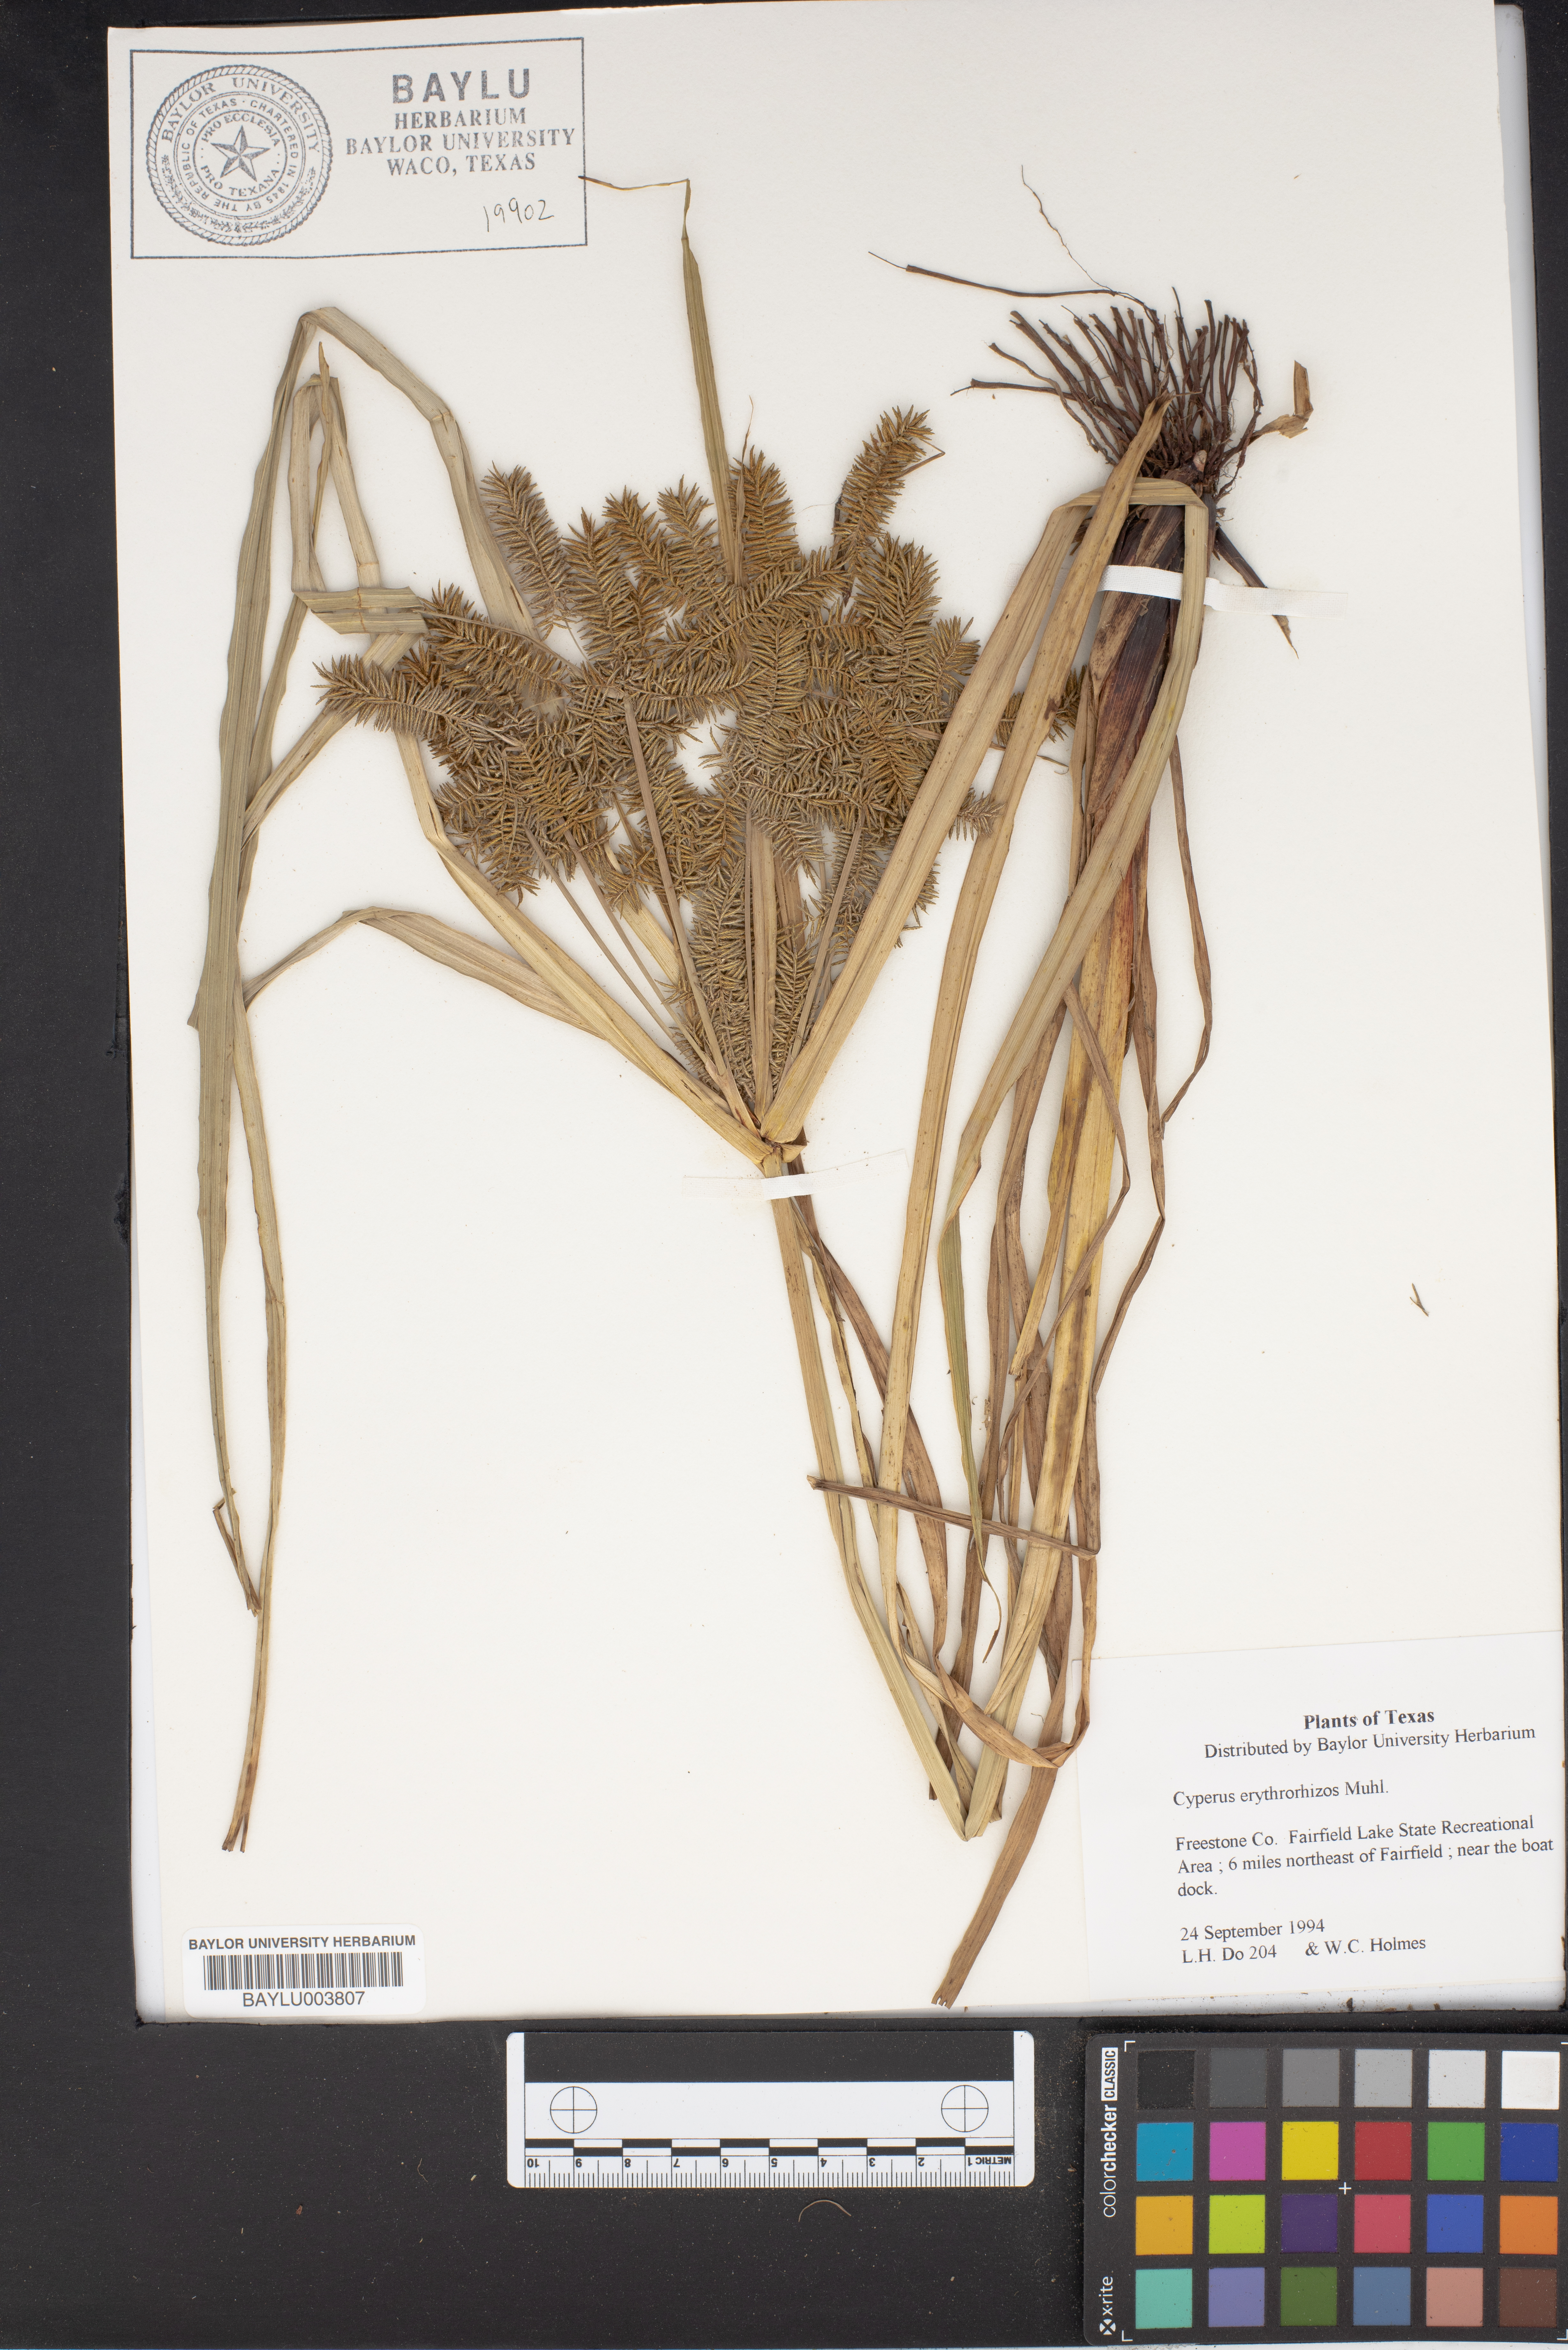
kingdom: Plantae
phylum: Tracheophyta
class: Liliopsida
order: Poales
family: Cyperaceae
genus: Cyperus
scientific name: Cyperus erythrorhizos
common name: Red-root flat sedge
